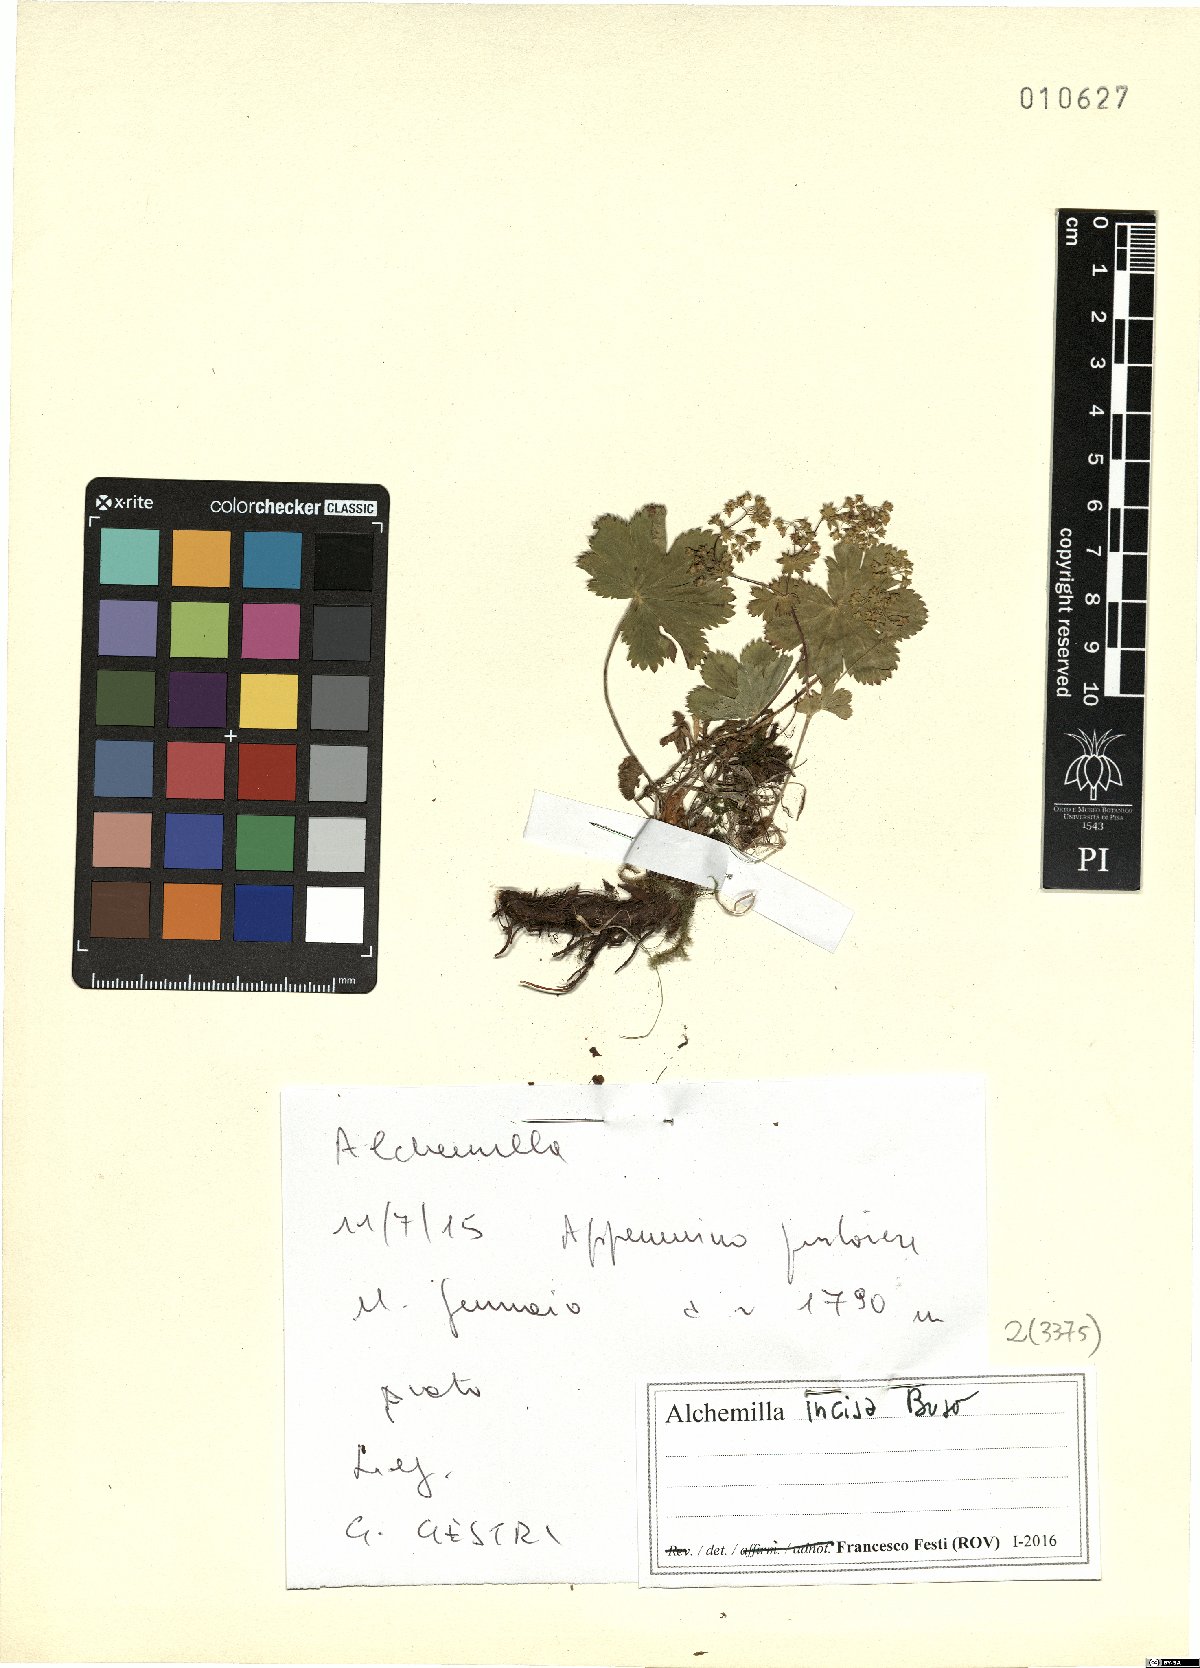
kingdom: Plantae
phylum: Tracheophyta
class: Magnoliopsida
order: Rosales
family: Rosaceae
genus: Alchemilla
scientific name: Alchemilla incisa
